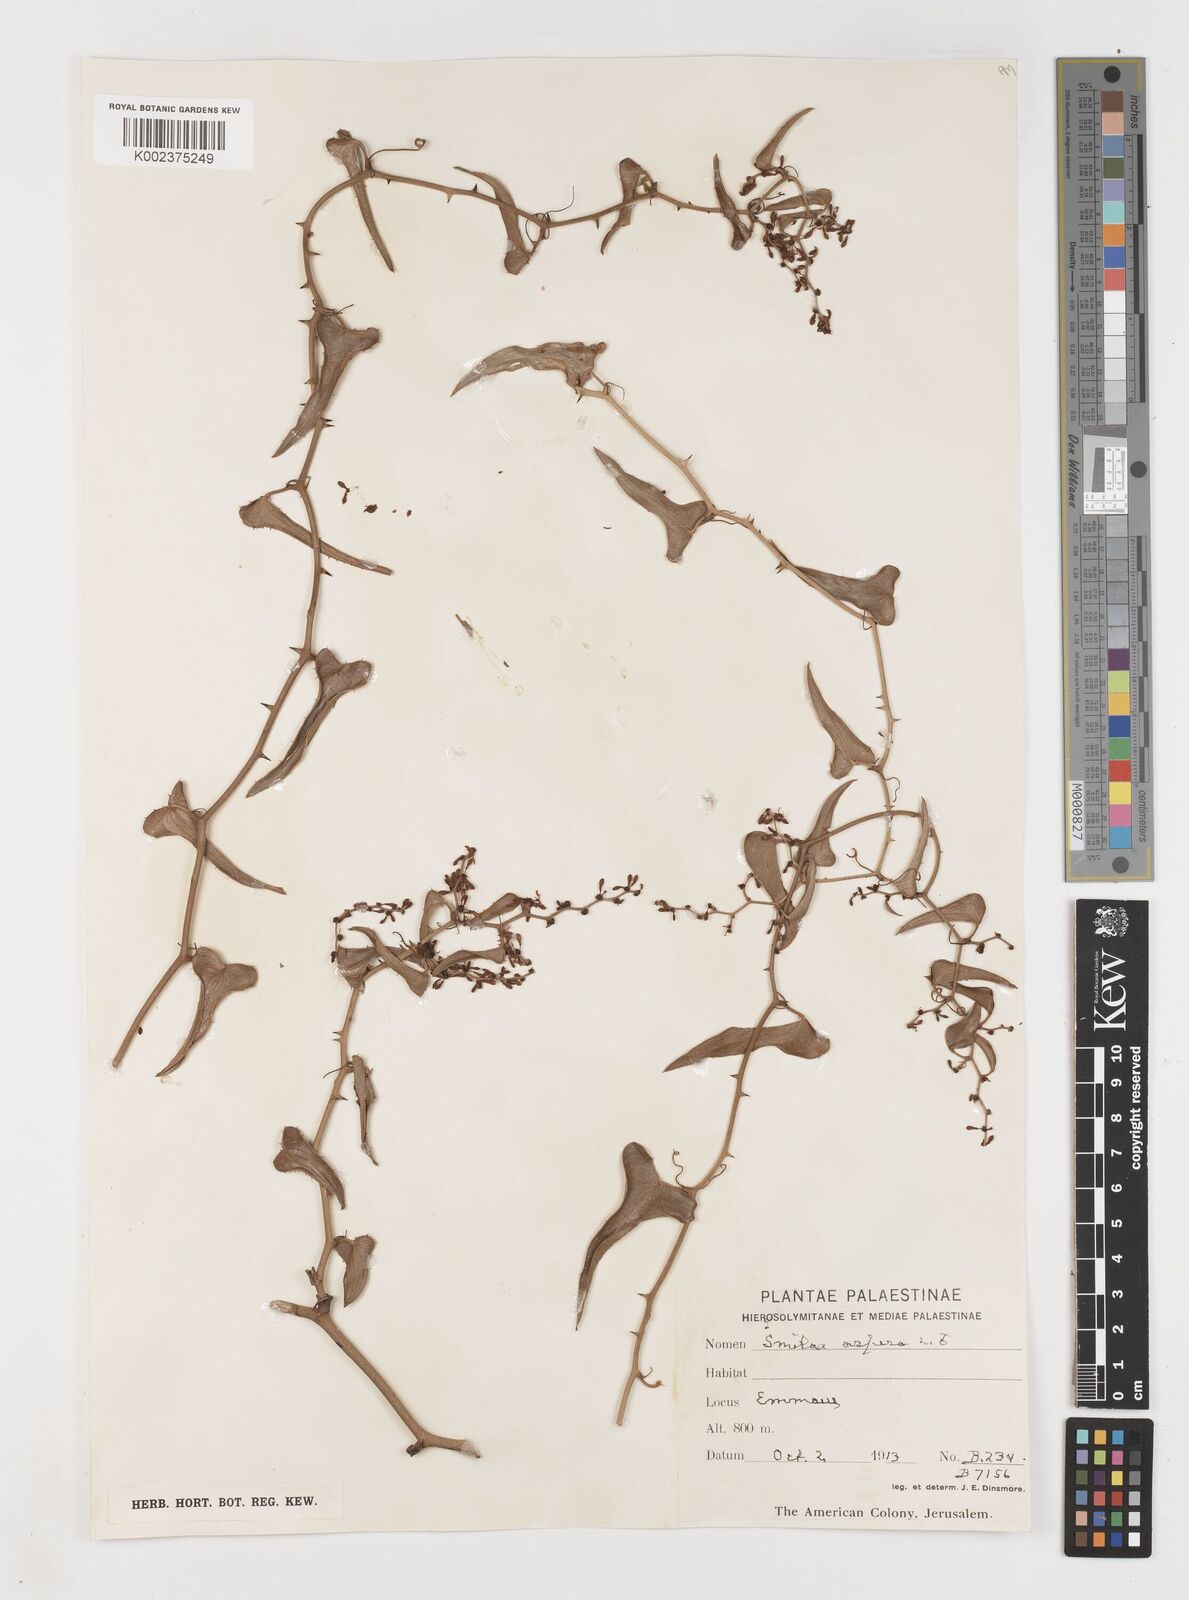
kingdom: Plantae
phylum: Tracheophyta
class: Liliopsida
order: Liliales
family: Smilacaceae
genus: Smilax
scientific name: Smilax aspera
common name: Common smilax
